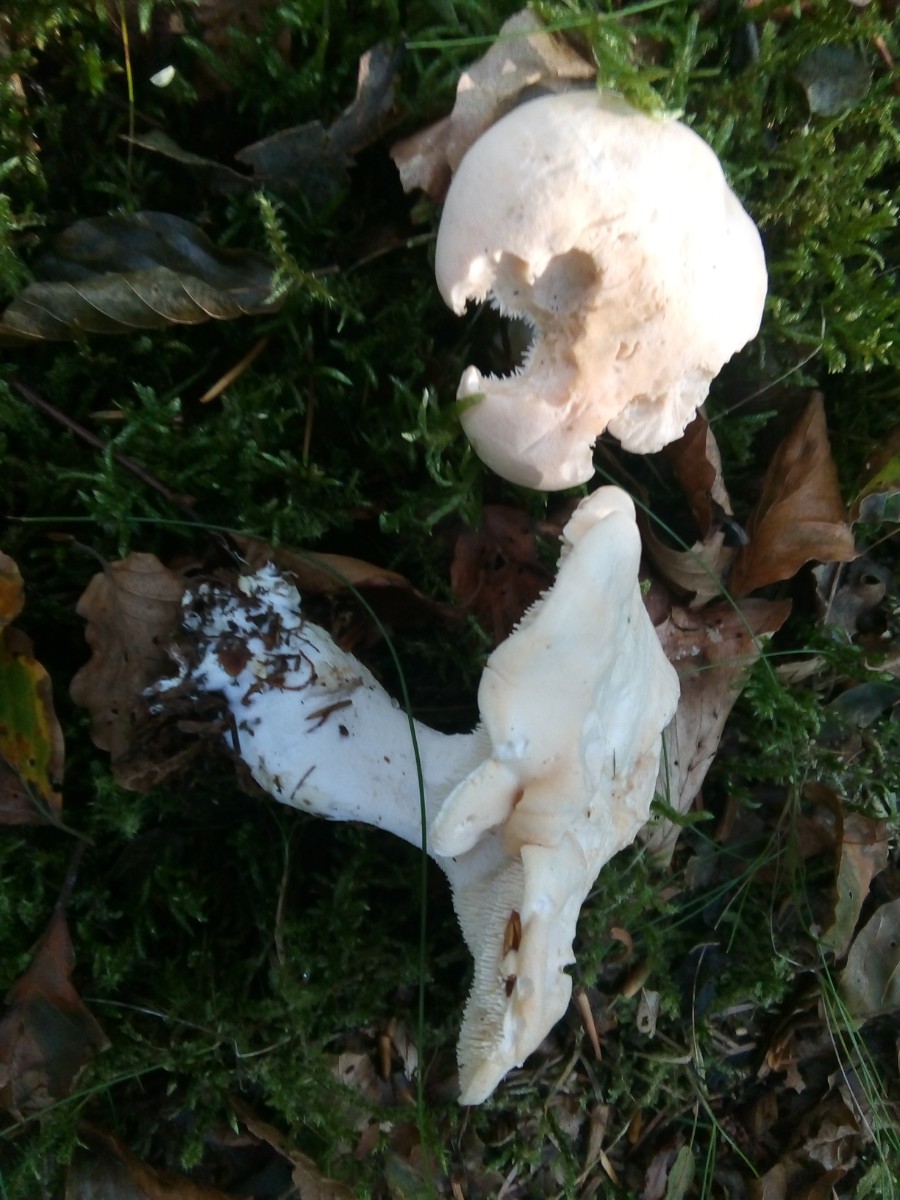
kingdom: Fungi
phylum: Basidiomycota
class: Agaricomycetes
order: Cantharellales
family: Hydnaceae
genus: Hydnum
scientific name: Hydnum repandum
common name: almindelig pigsvamp
